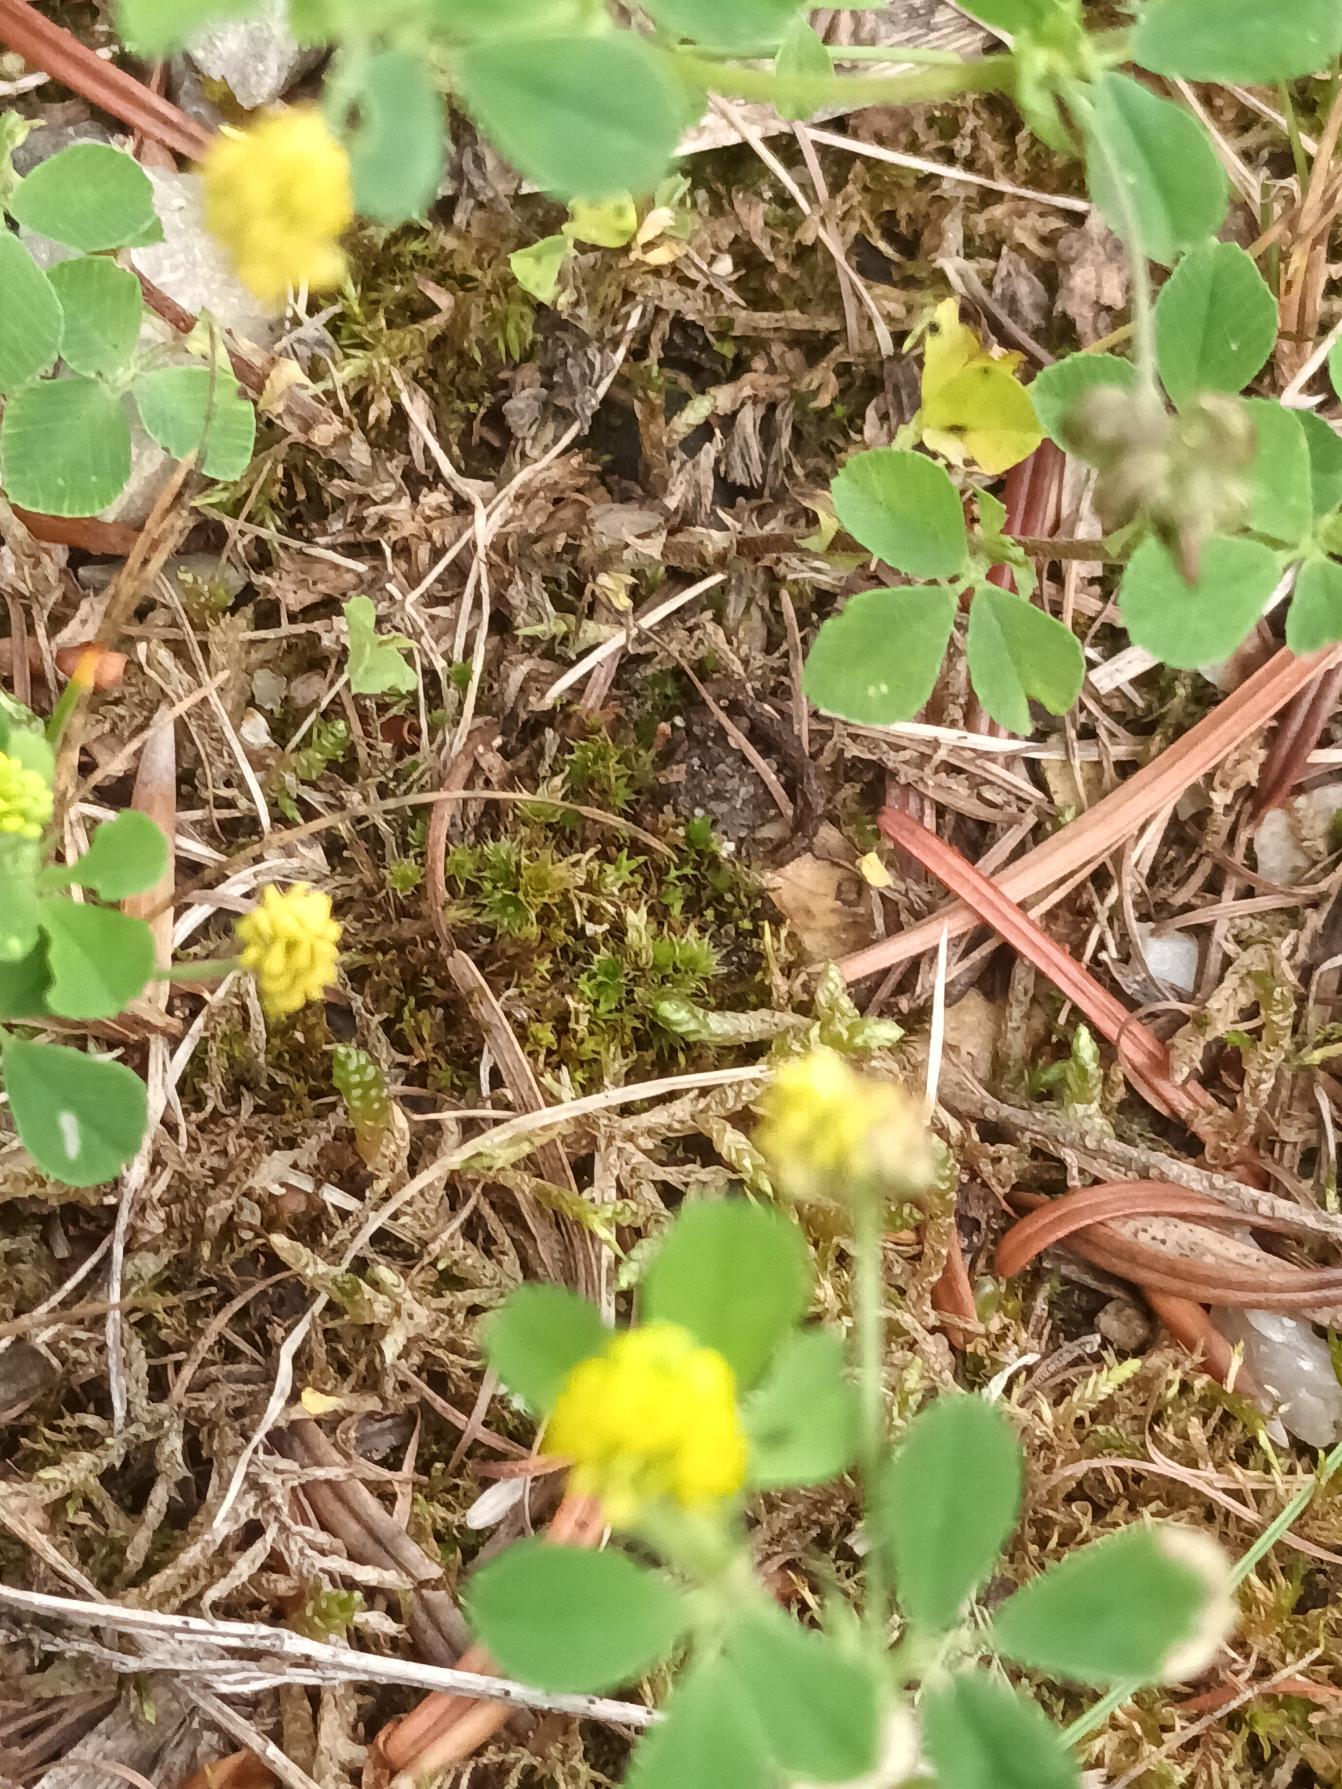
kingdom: Plantae
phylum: Tracheophyta
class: Magnoliopsida
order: Fabales
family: Fabaceae
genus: Medicago
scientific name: Medicago lupulina
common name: Humle-sneglebælg
